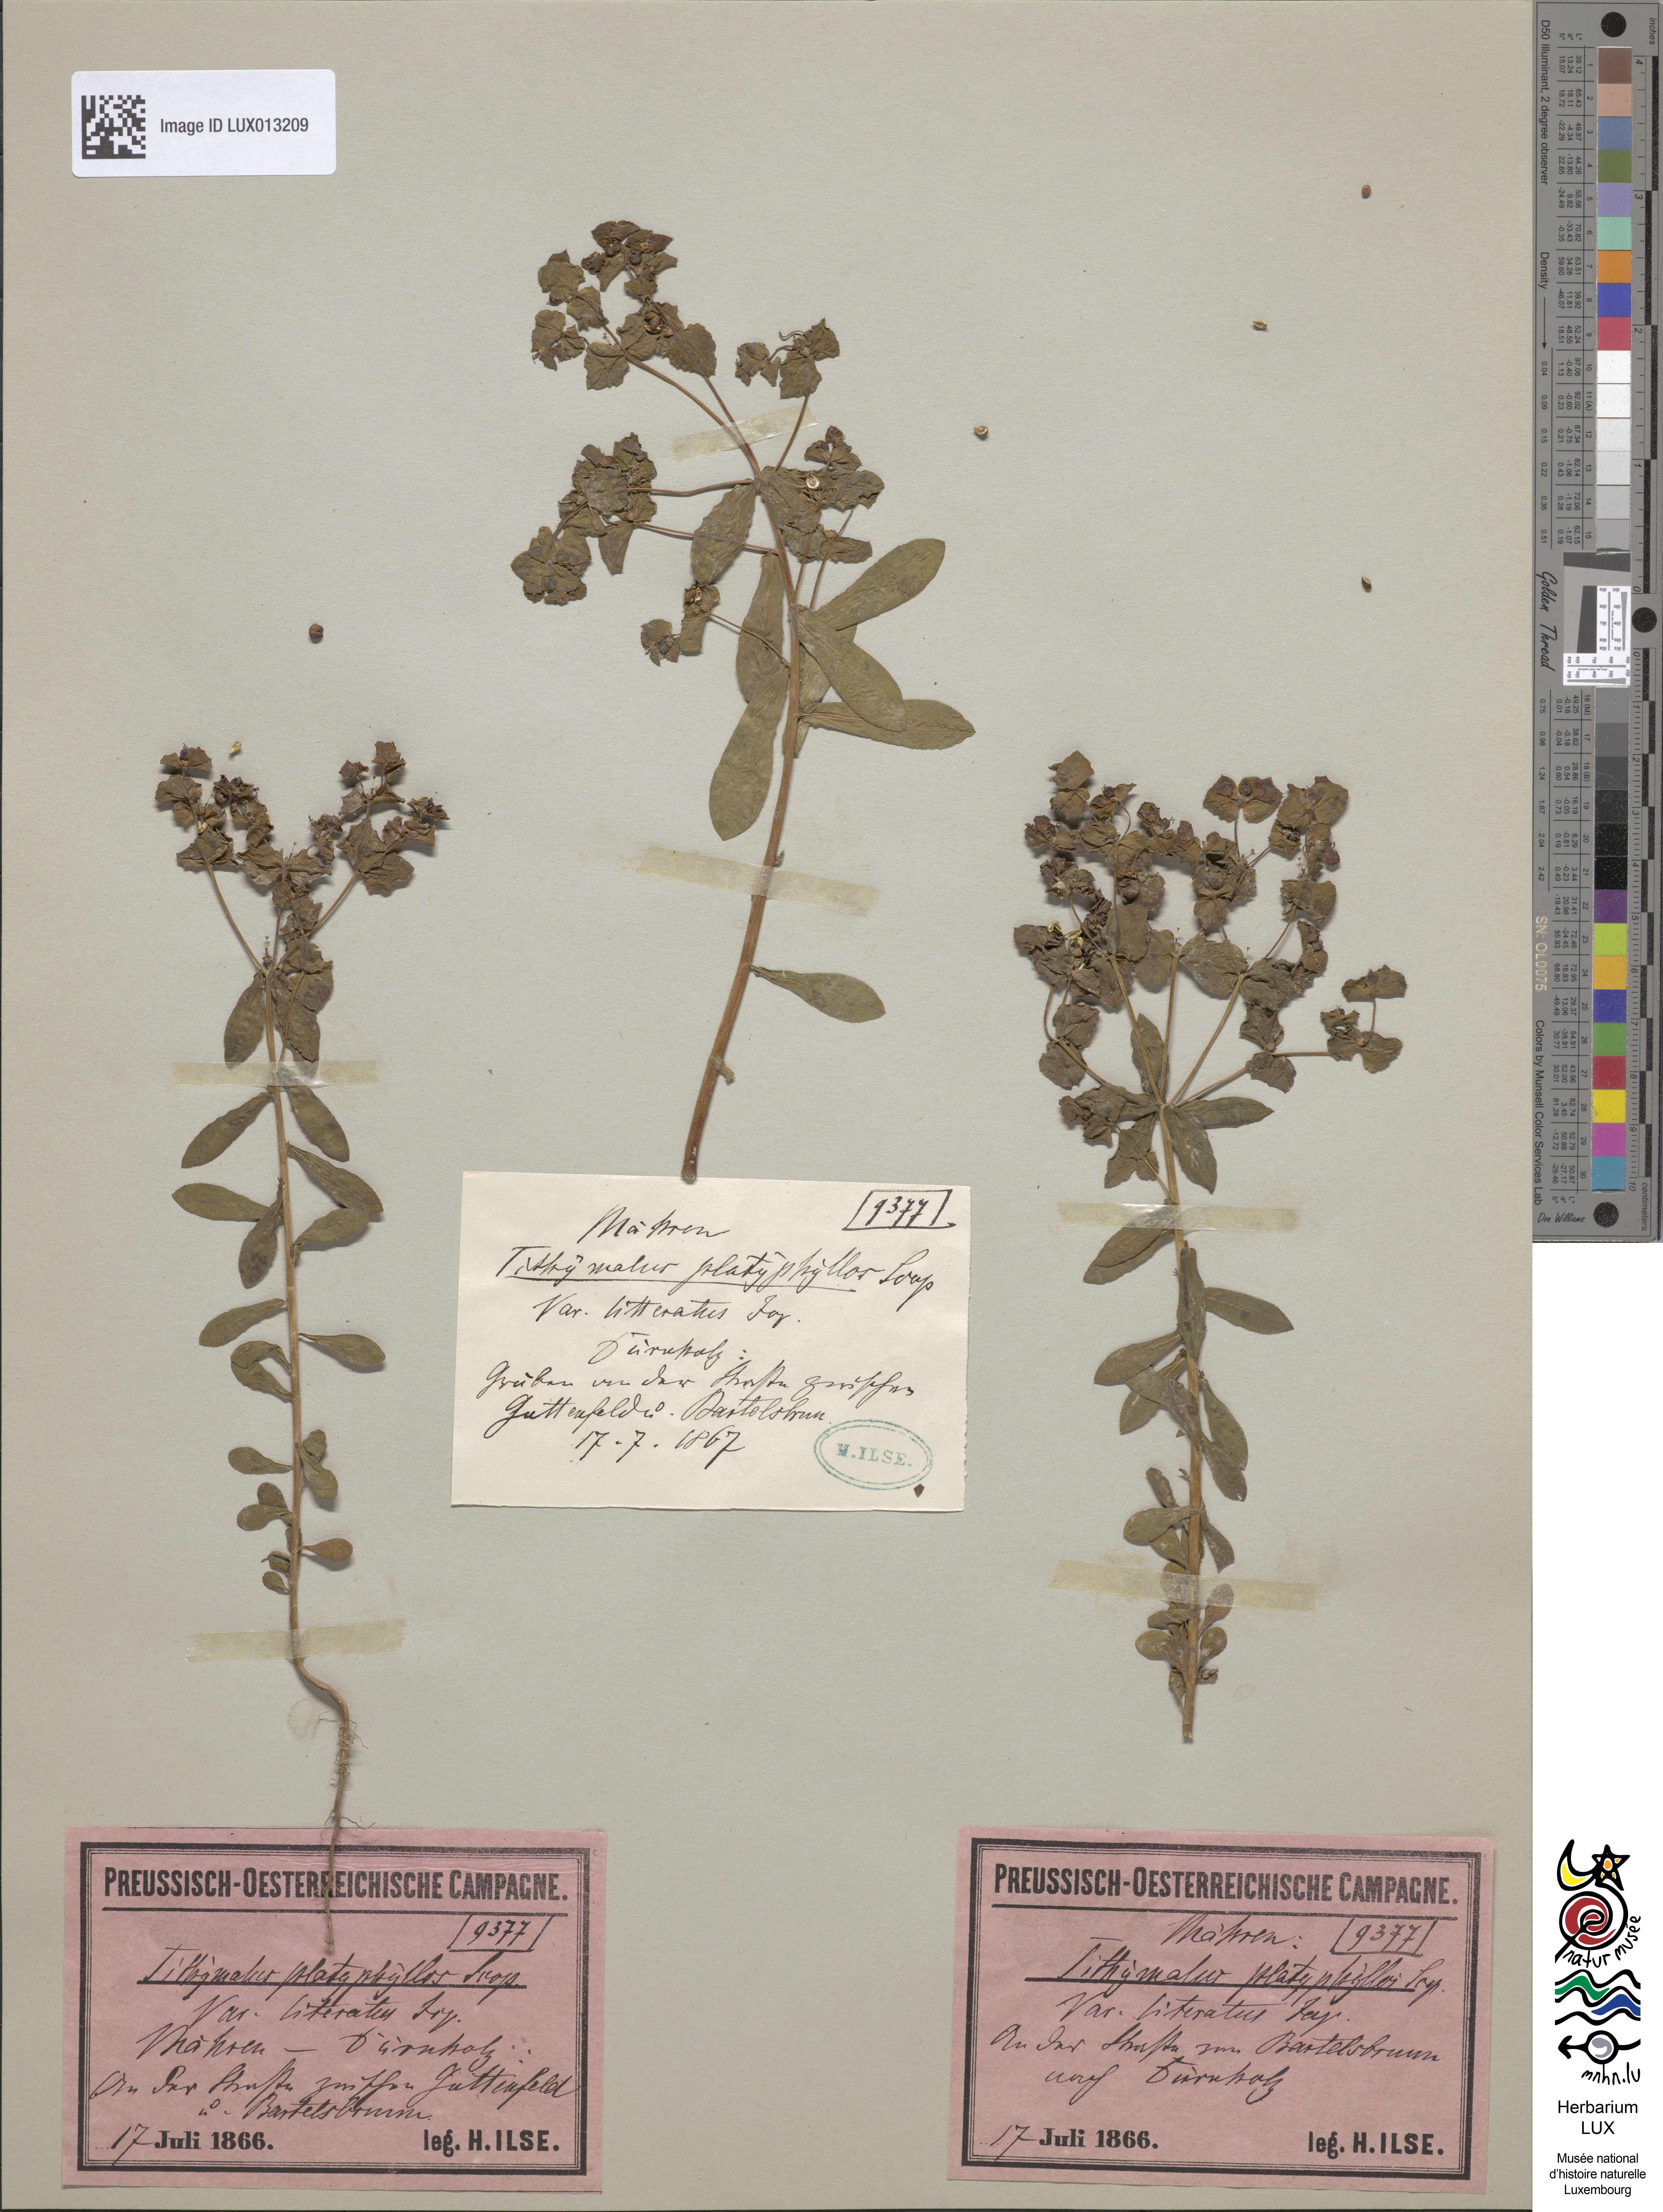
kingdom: Plantae
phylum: Tracheophyta
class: Magnoliopsida
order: Malpighiales
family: Euphorbiaceae
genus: Euphorbia
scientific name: Euphorbia platyphyllos
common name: Broad-leaved spurge
